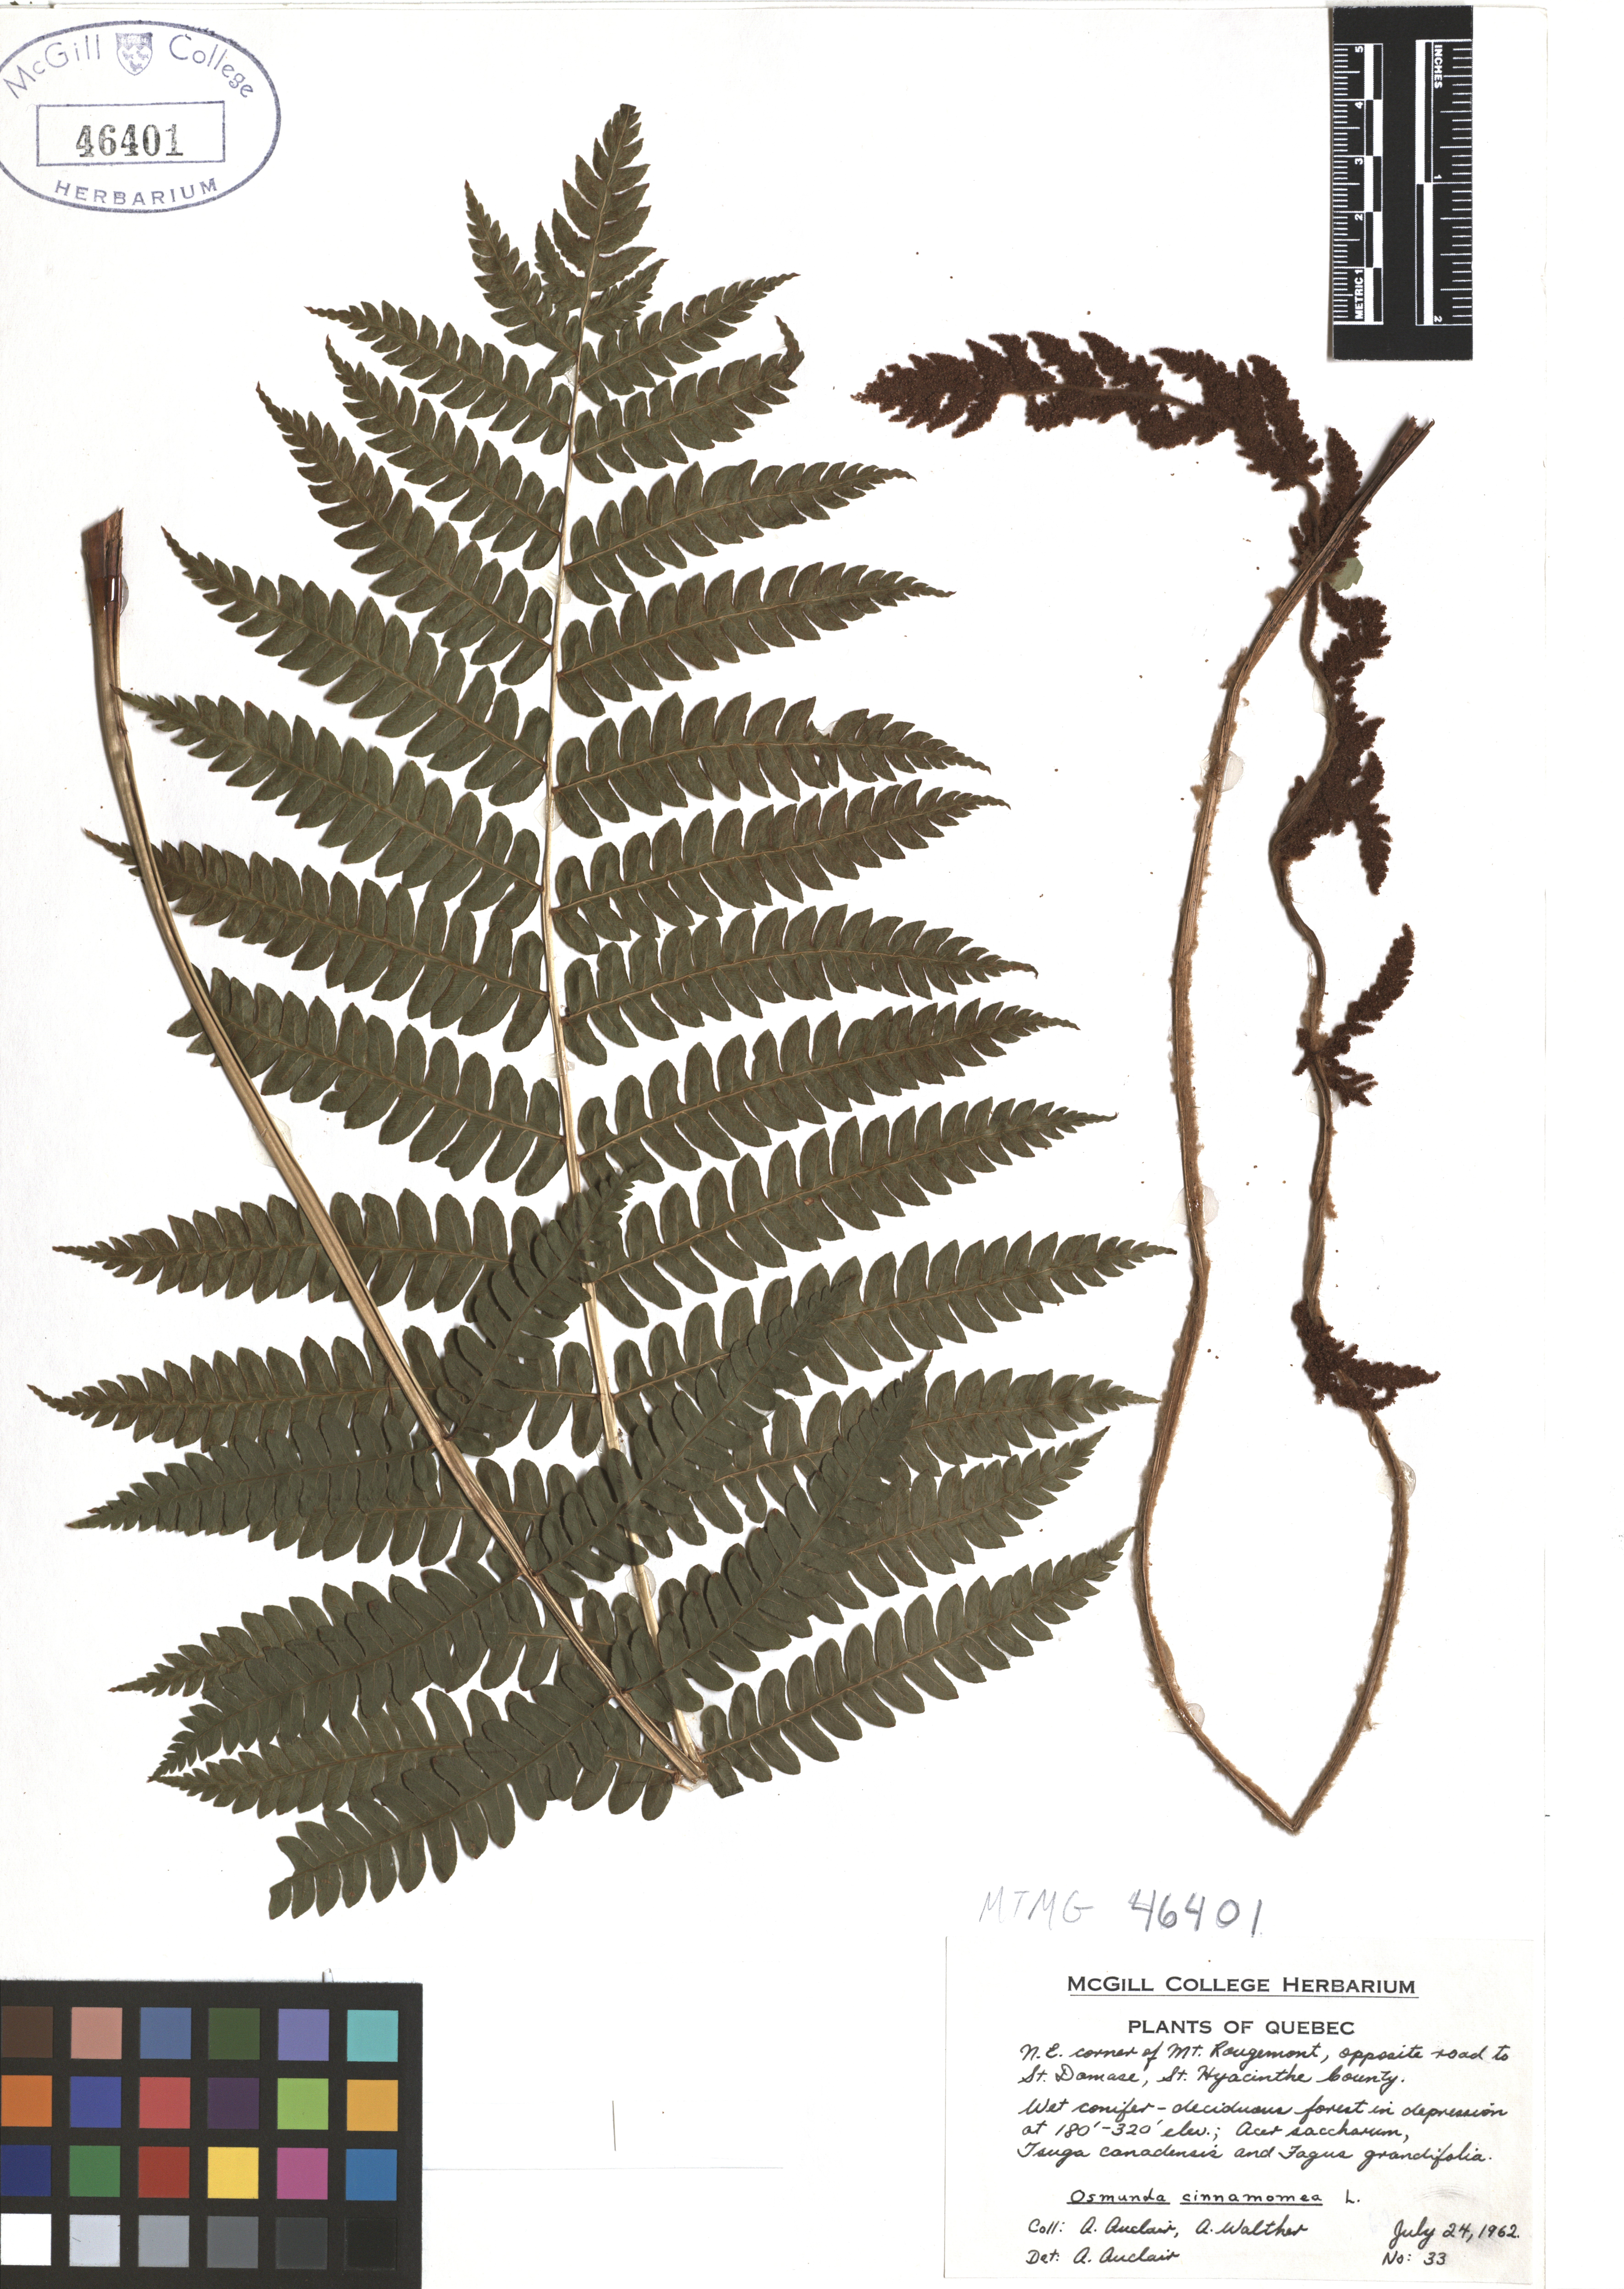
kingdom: Plantae
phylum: Tracheophyta
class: Polypodiopsida
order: Osmundales
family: Osmundaceae
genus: Osmundastrum
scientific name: Osmundastrum cinnamomeum
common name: Cinnamon fern
